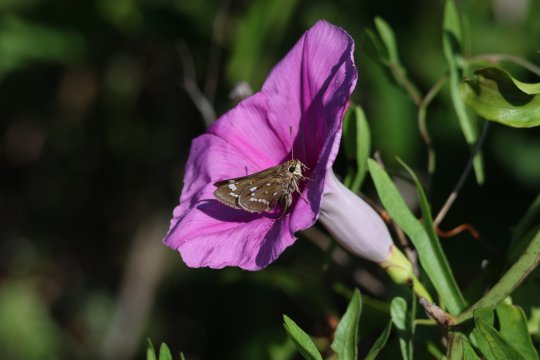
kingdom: Animalia
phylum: Arthropoda
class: Insecta
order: Lepidoptera
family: Hesperiidae
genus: Atrytonopsis
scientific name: Atrytonopsis quinteri
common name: Crystal Skipper
